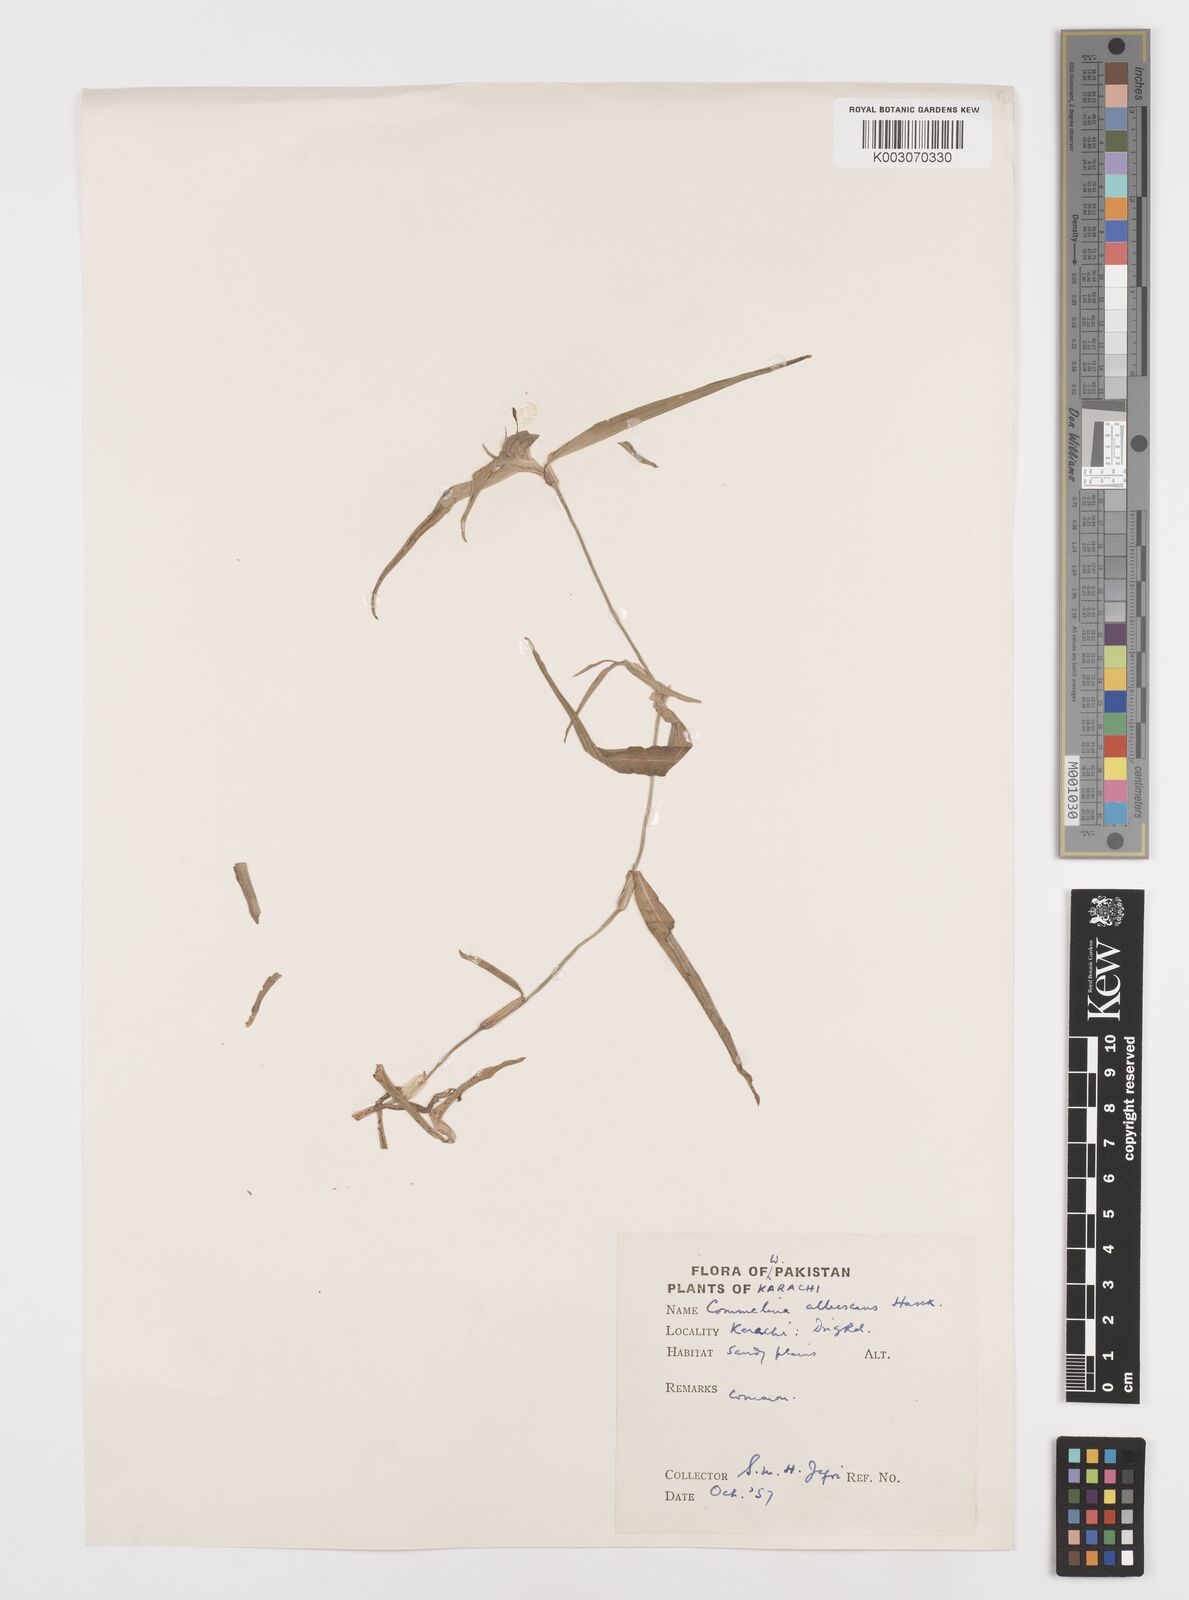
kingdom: Plantae
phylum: Tracheophyta
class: Liliopsida
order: Commelinales
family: Commelinaceae
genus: Commelina
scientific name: Commelina albescens
